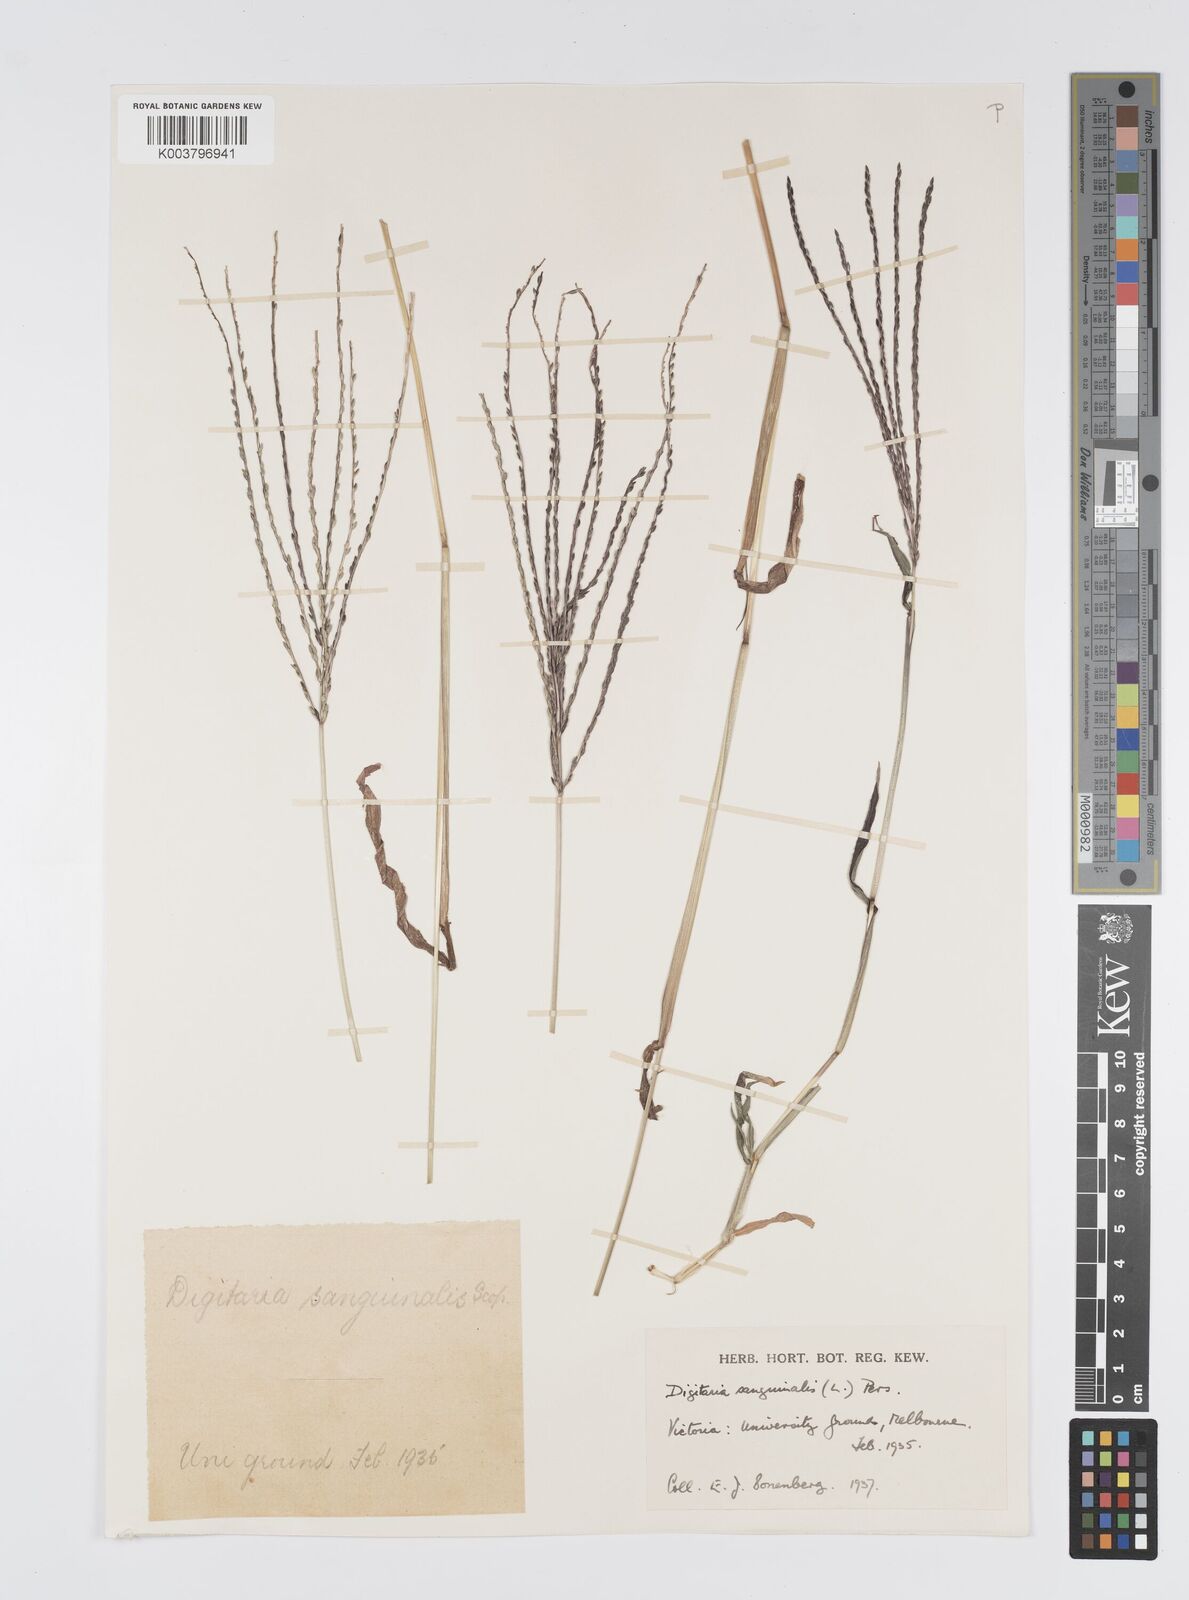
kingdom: Plantae
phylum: Tracheophyta
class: Liliopsida
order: Poales
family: Poaceae
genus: Digitaria
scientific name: Digitaria sanguinalis
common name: Hairy crabgrass
